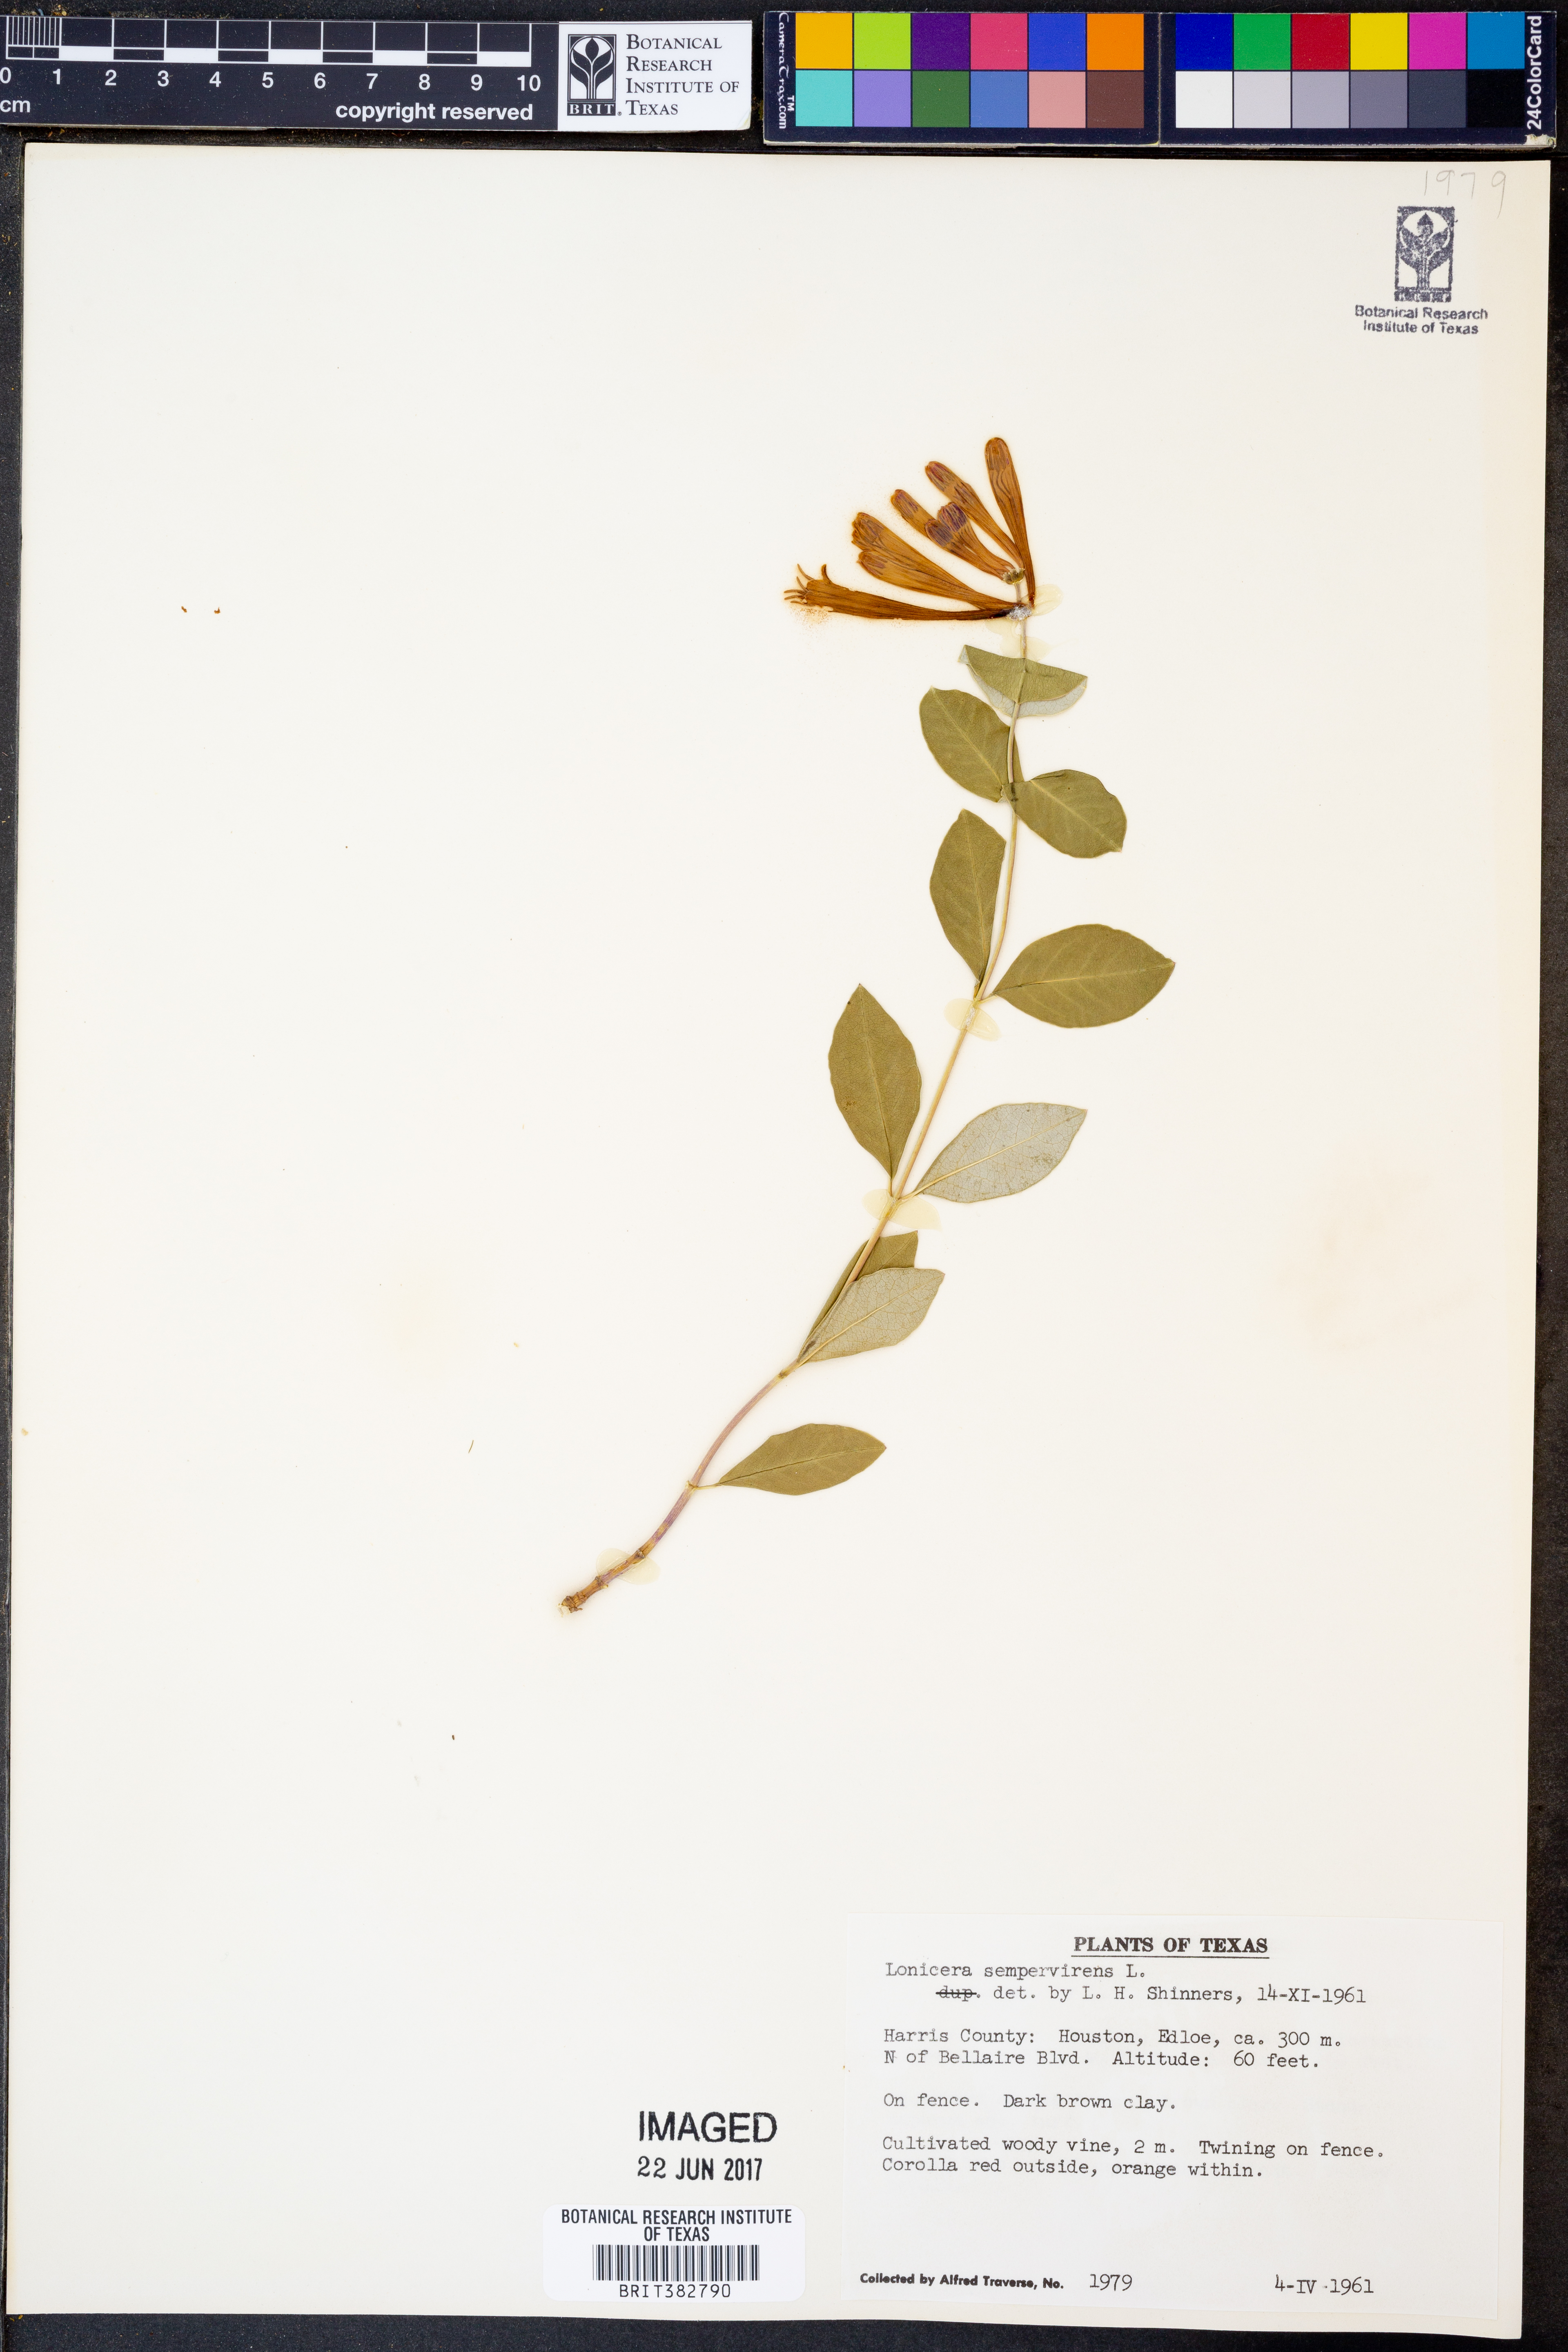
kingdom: Plantae
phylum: Tracheophyta
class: Magnoliopsida
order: Dipsacales
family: Caprifoliaceae
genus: Lonicera
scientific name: Lonicera sempervirens
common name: Coral honeysuckle
